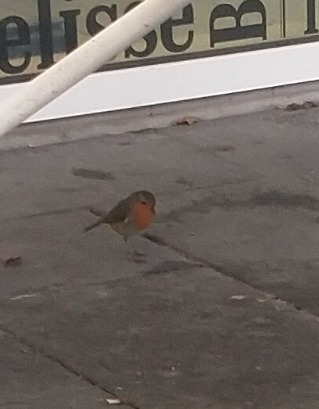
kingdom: Animalia
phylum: Chordata
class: Aves
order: Passeriformes
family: Muscicapidae
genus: Erithacus
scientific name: Erithacus rubecula
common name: Rødhals/rødkælk
